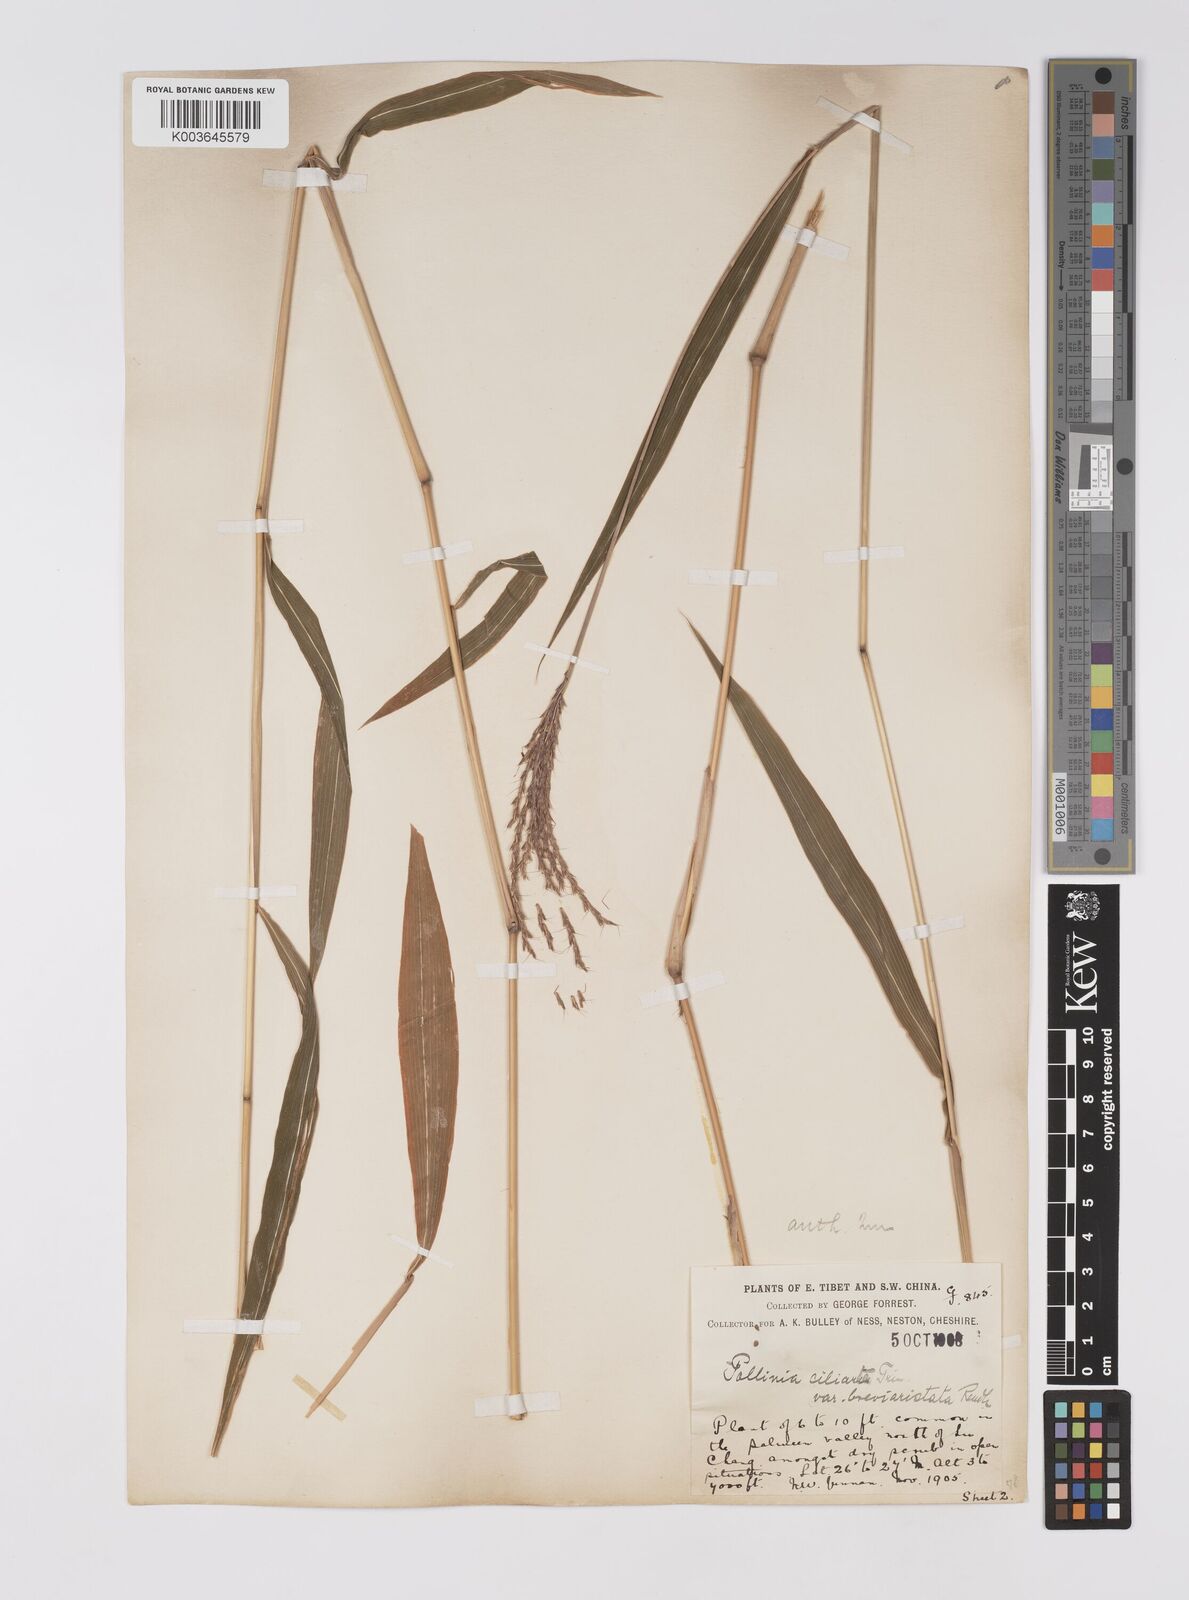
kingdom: Plantae
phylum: Tracheophyta
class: Liliopsida
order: Poales
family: Poaceae
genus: Microstegium
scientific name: Microstegium fasciculatum
